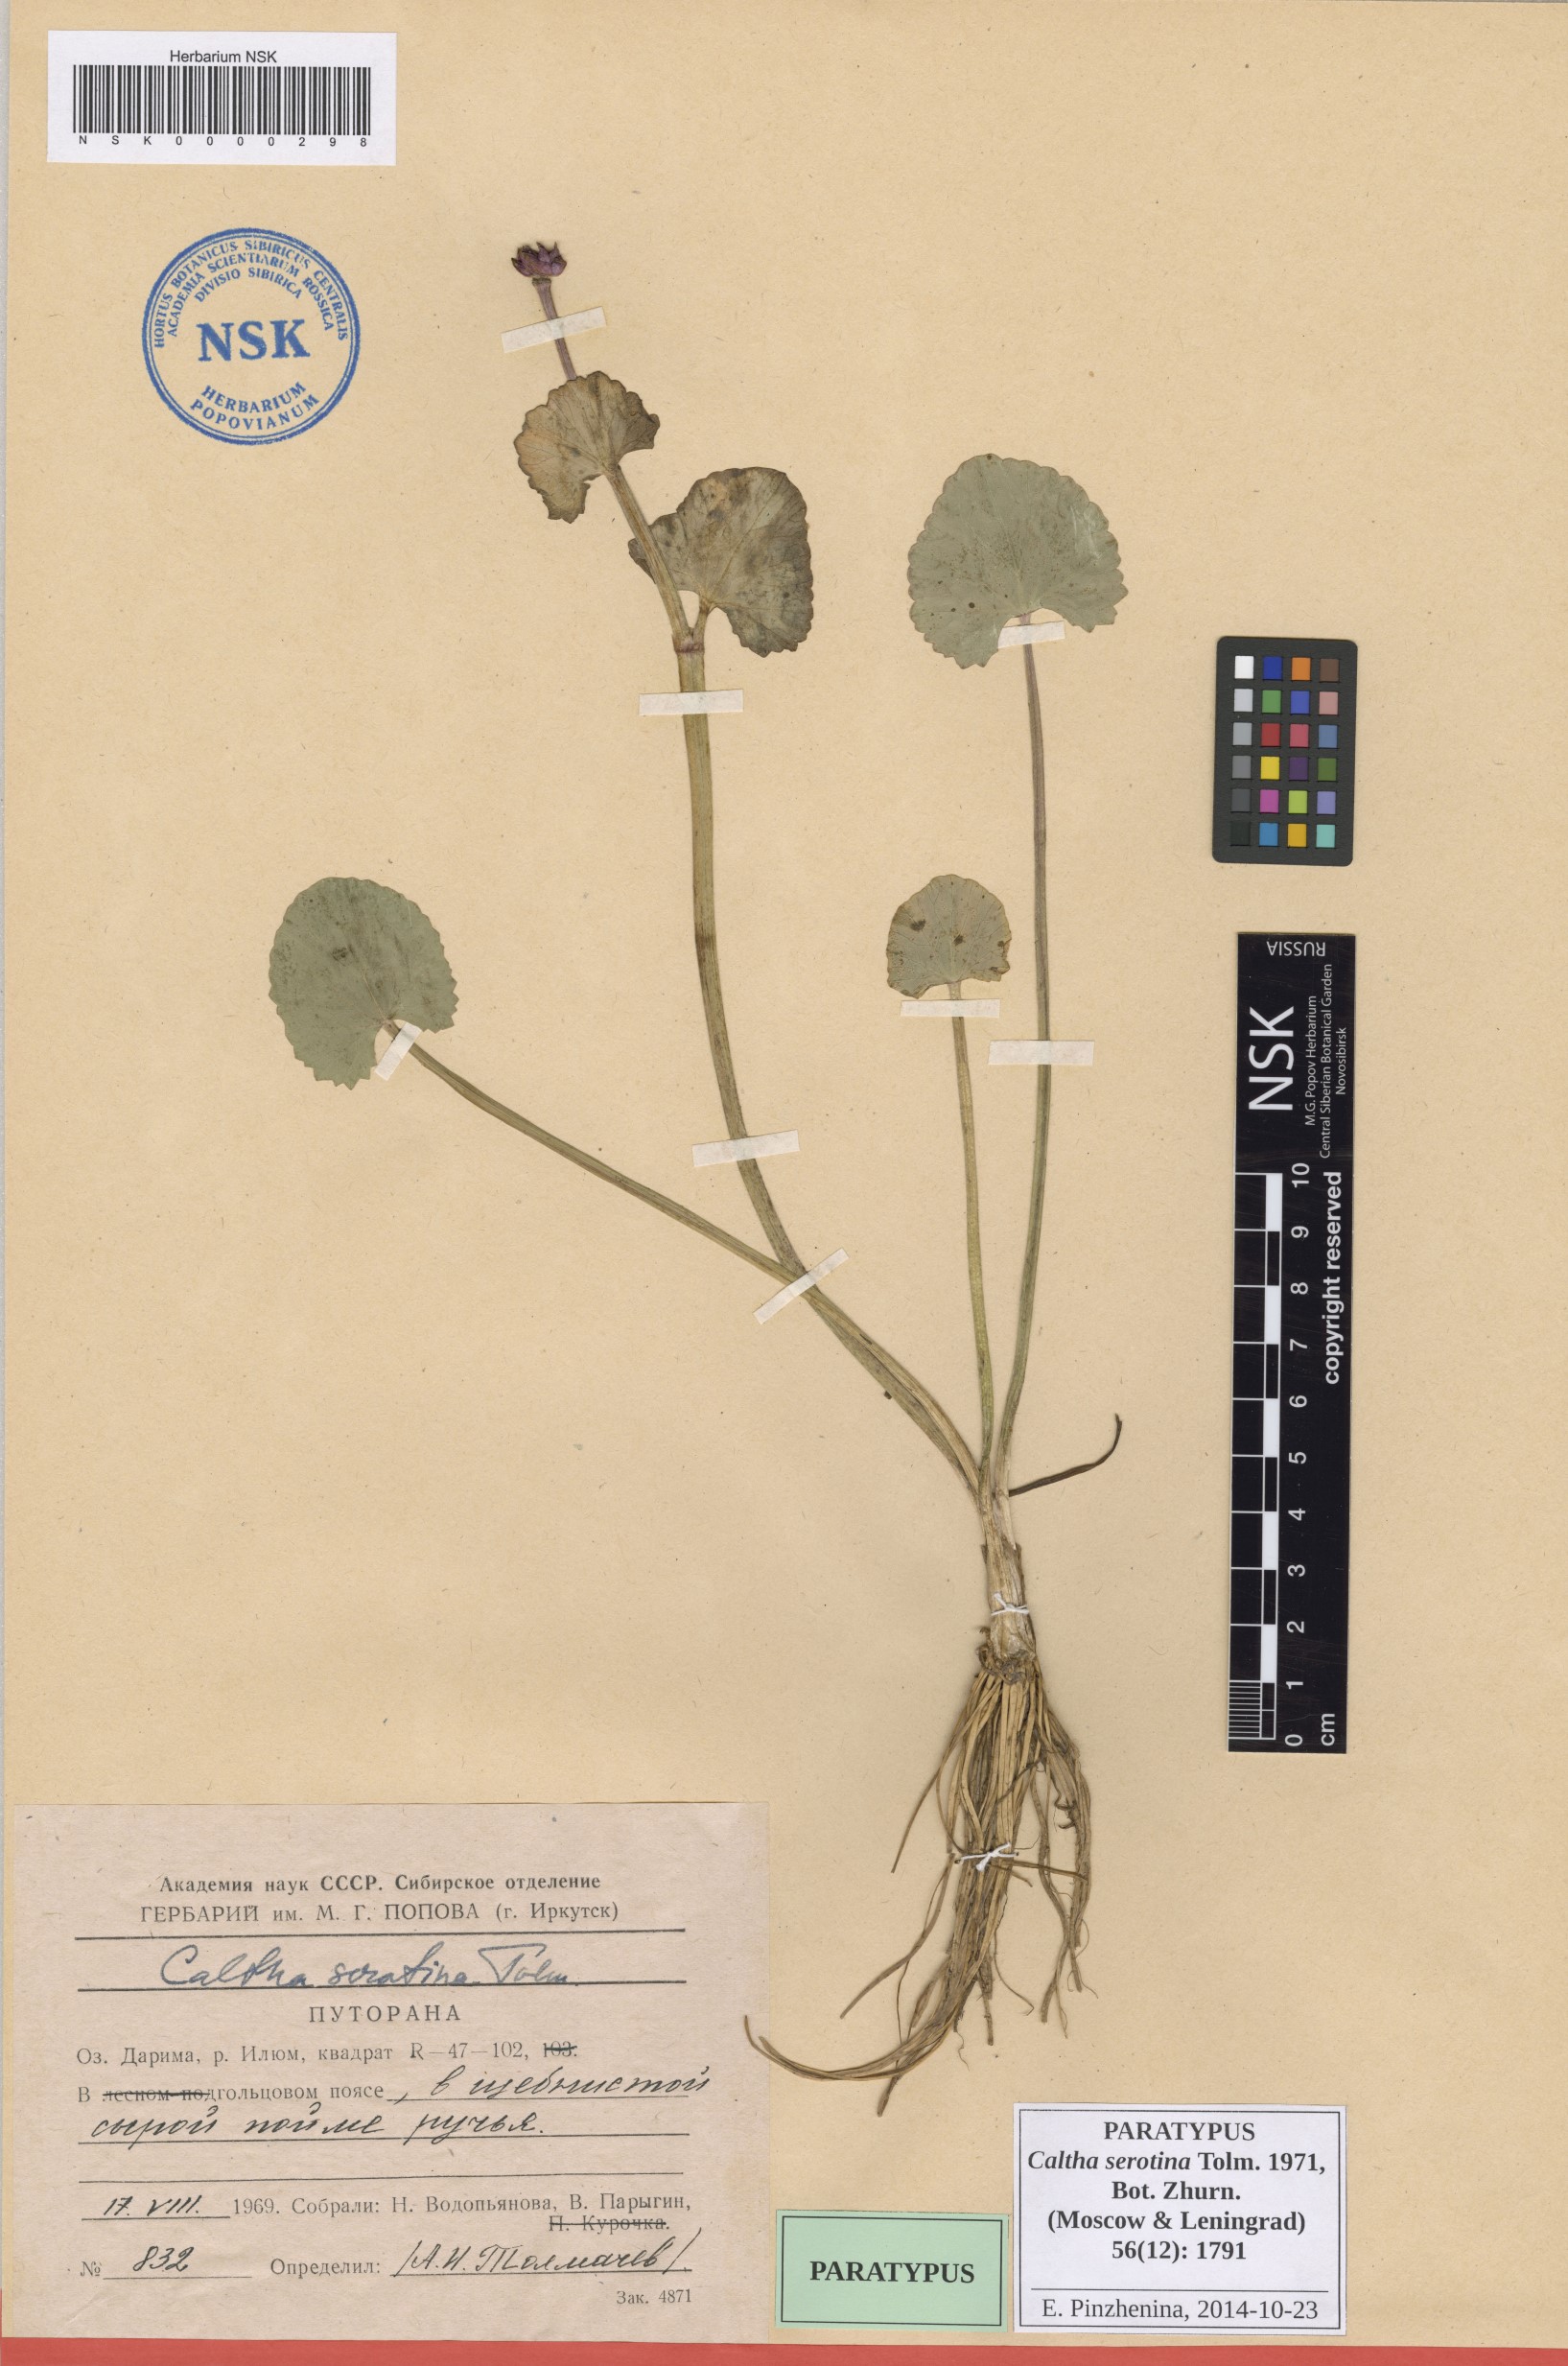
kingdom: Plantae
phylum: Tracheophyta
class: Magnoliopsida
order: Ranunculales
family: Ranunculaceae
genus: Caltha
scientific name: Caltha palustris
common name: Marsh marigold
